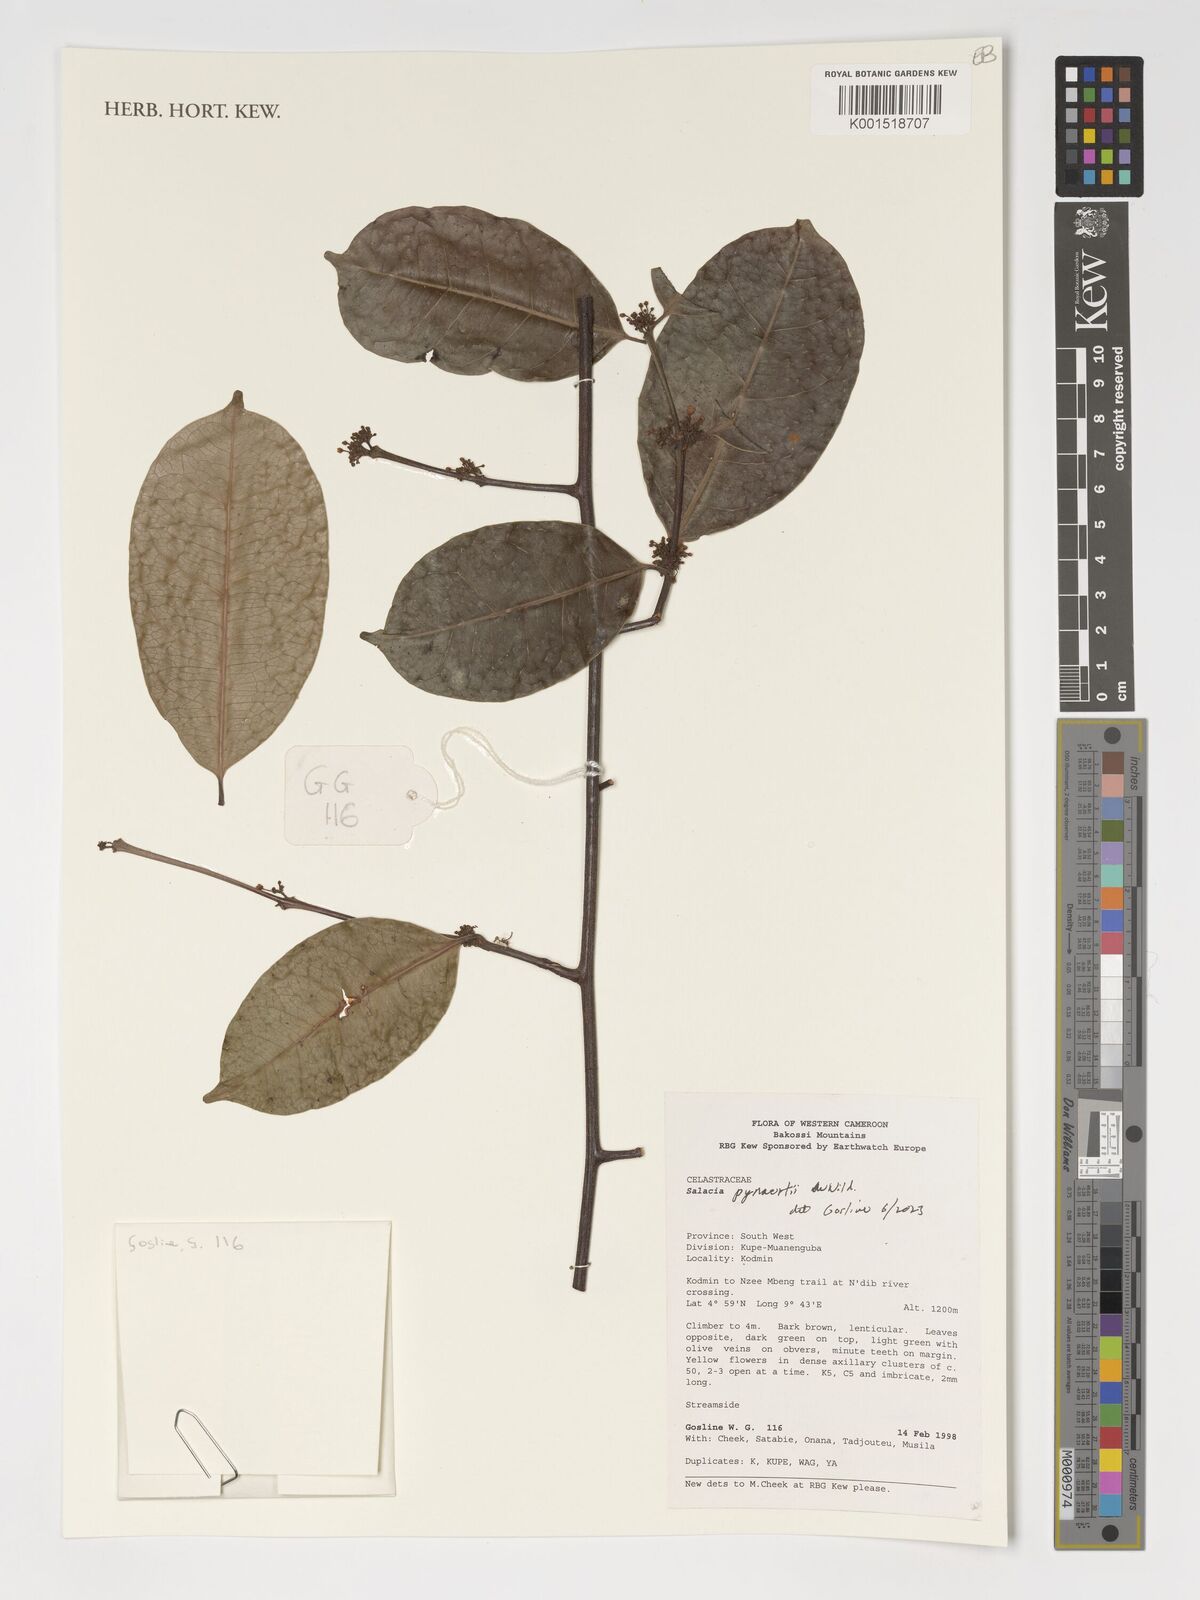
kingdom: Plantae
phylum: Tracheophyta
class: Magnoliopsida
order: Celastrales
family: Celastraceae
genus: Salacia
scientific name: Salacia pynaertii
